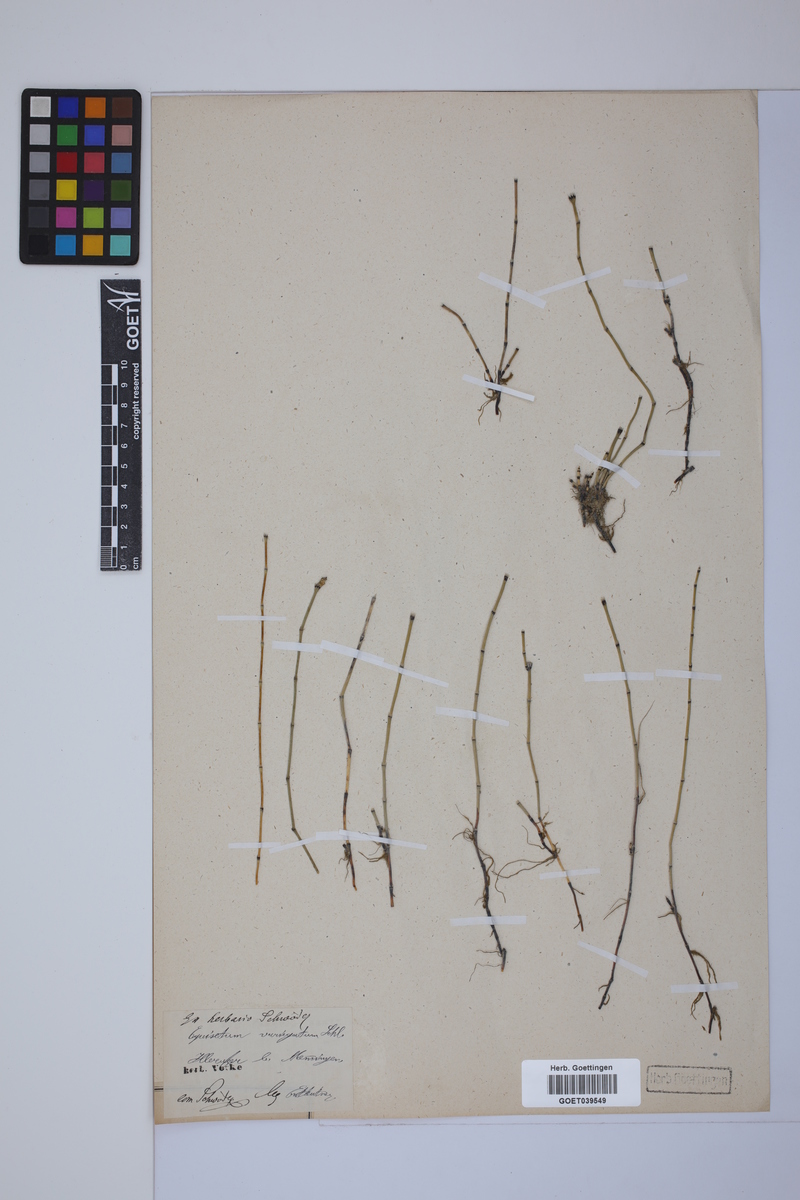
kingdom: Plantae
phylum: Tracheophyta
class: Polypodiopsida
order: Equisetales
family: Equisetaceae
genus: Equisetum
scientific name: Equisetum variegatum
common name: Variegated horsetail
